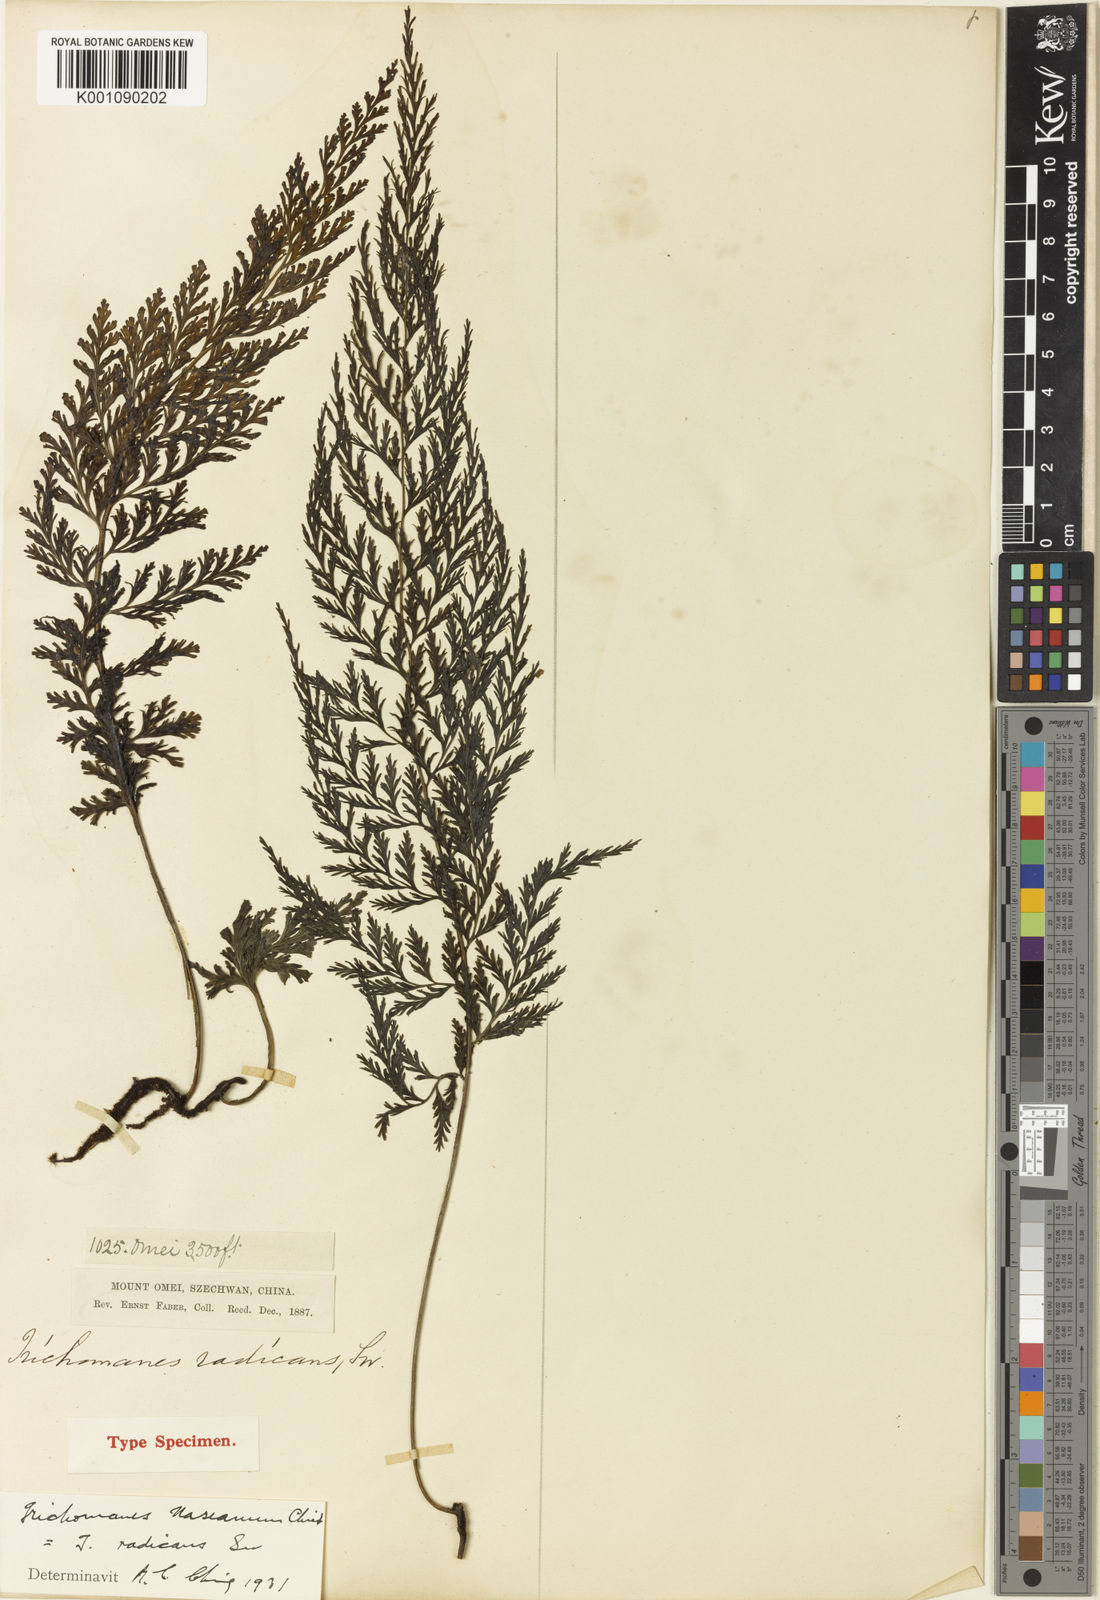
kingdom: Plantae
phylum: Tracheophyta
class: Polypodiopsida
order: Hymenophyllales
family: Hymenophyllaceae
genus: Vandenboschia
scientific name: Vandenboschia speciosa
